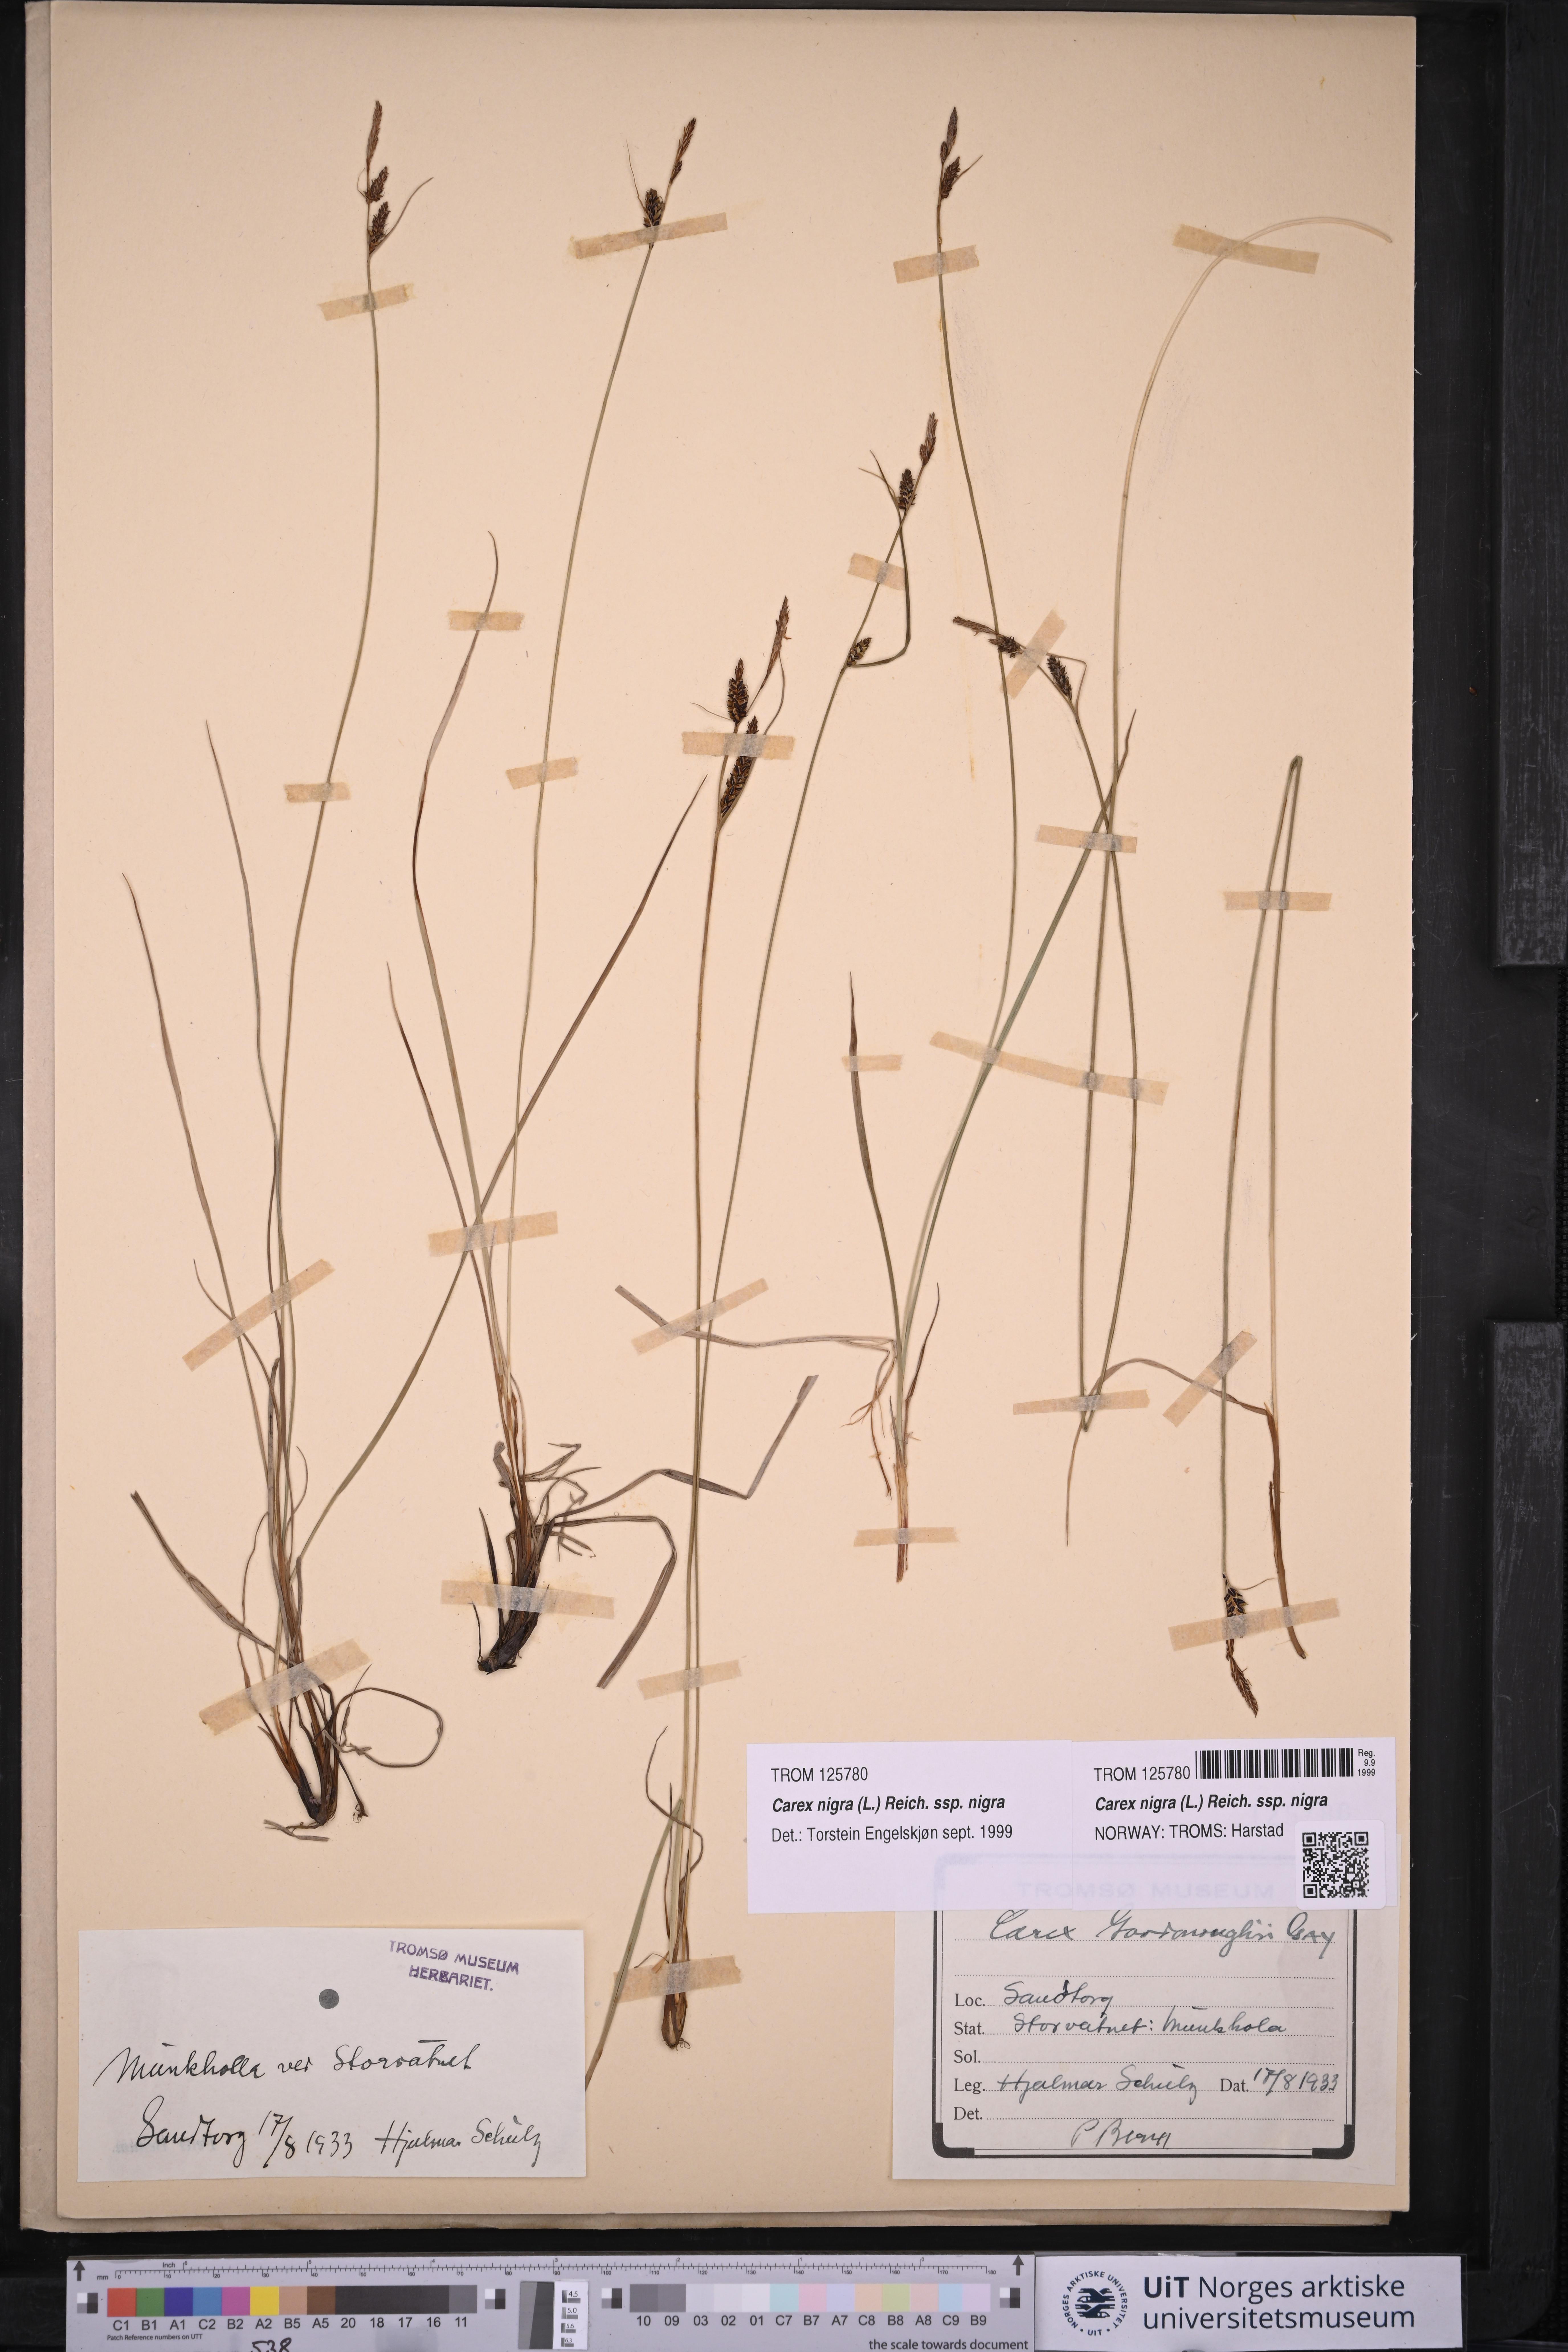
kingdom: Plantae
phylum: Tracheophyta
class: Liliopsida
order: Poales
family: Cyperaceae
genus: Carex
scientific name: Carex nigra
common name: Common sedge
